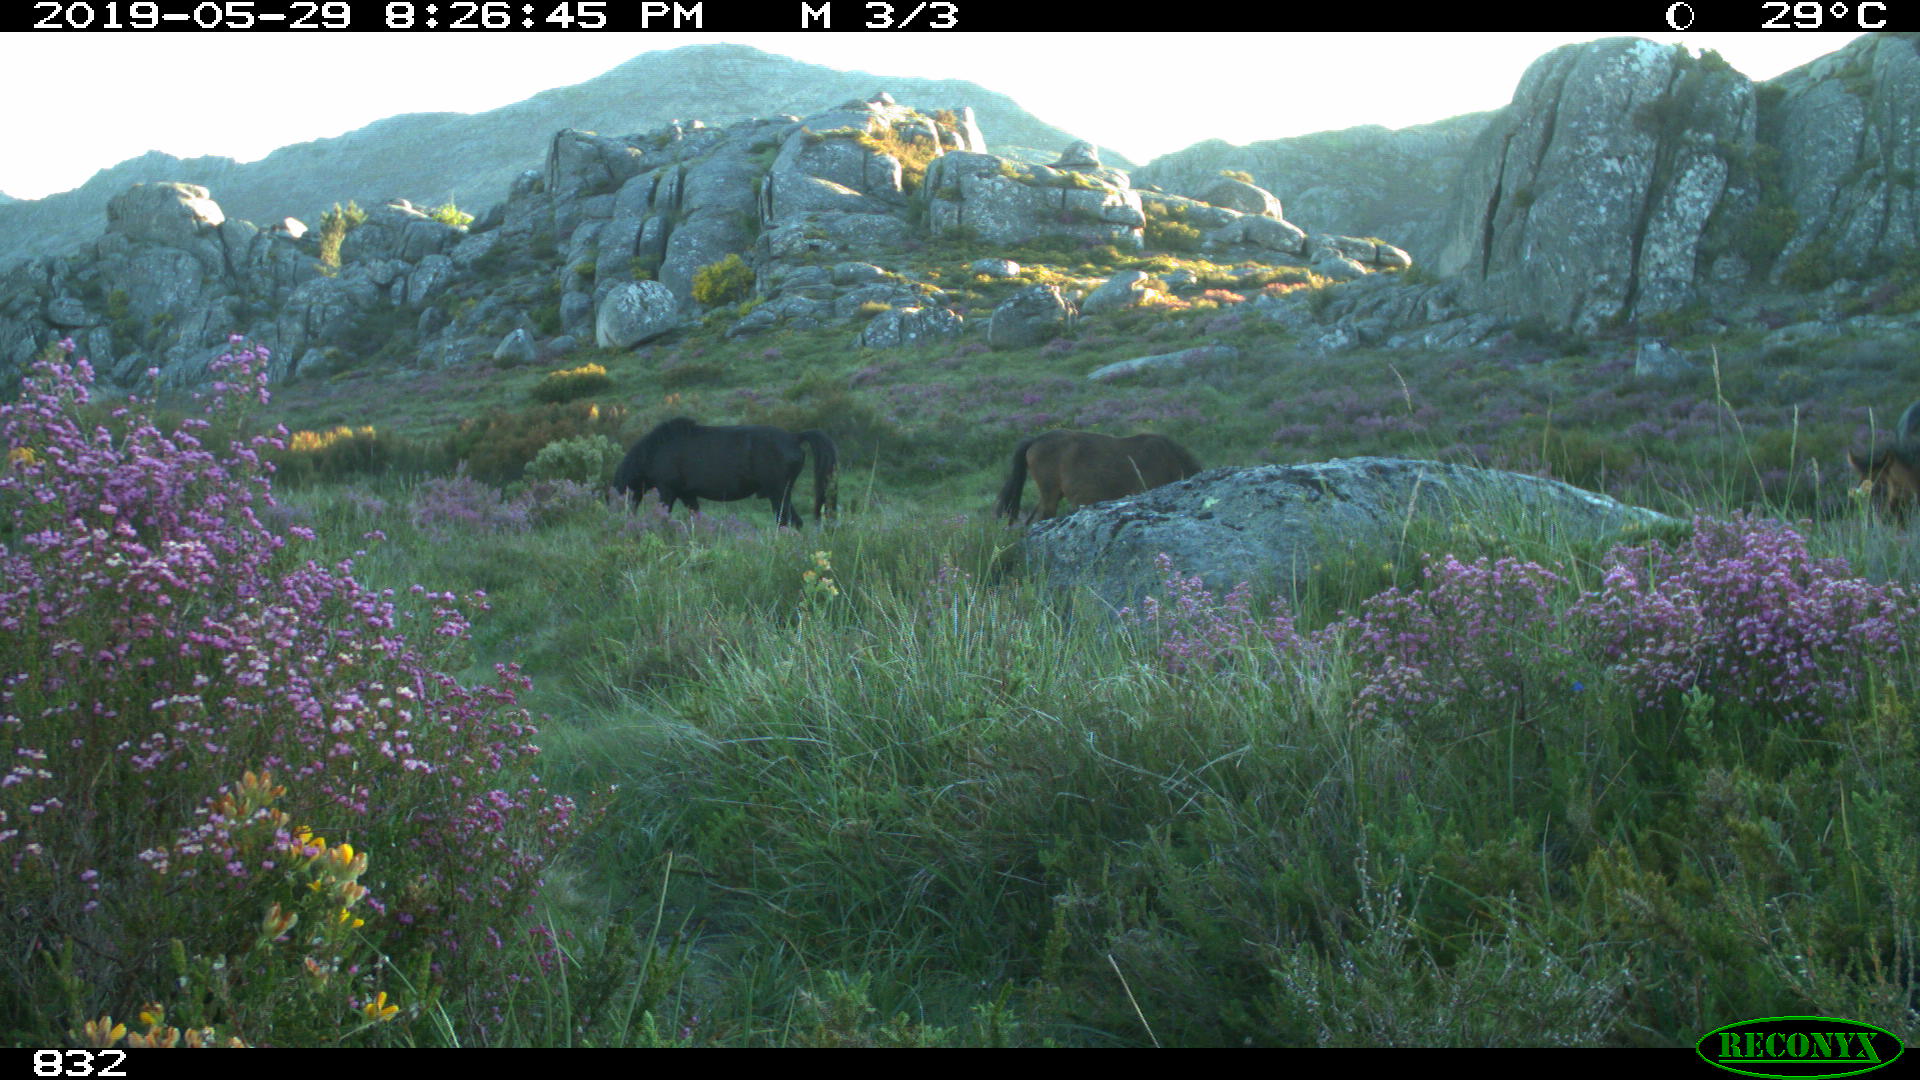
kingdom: Animalia
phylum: Chordata
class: Mammalia
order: Perissodactyla
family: Equidae
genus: Equus
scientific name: Equus caballus
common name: Horse
